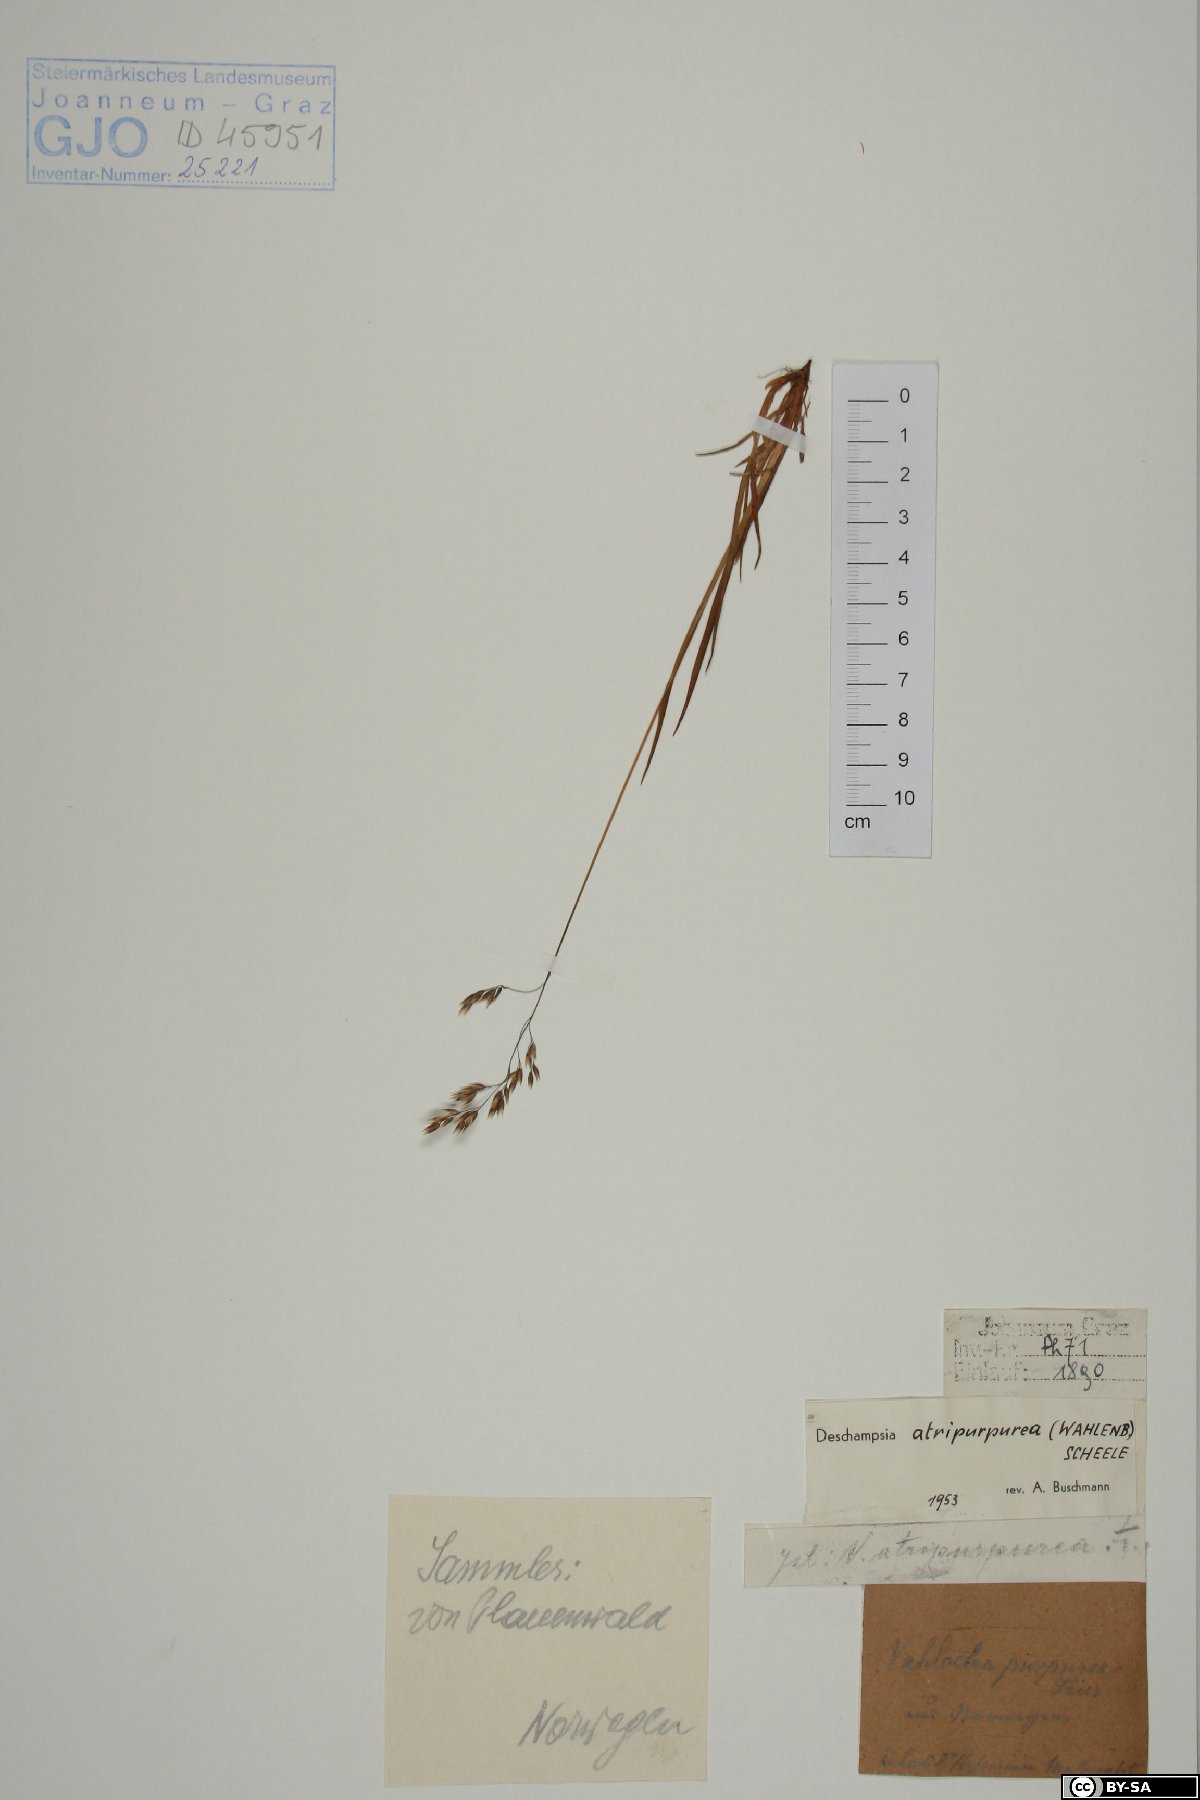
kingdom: Plantae
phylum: Tracheophyta
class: Liliopsida
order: Poales
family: Poaceae
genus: Vahlodea
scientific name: Vahlodea atropurpurea
